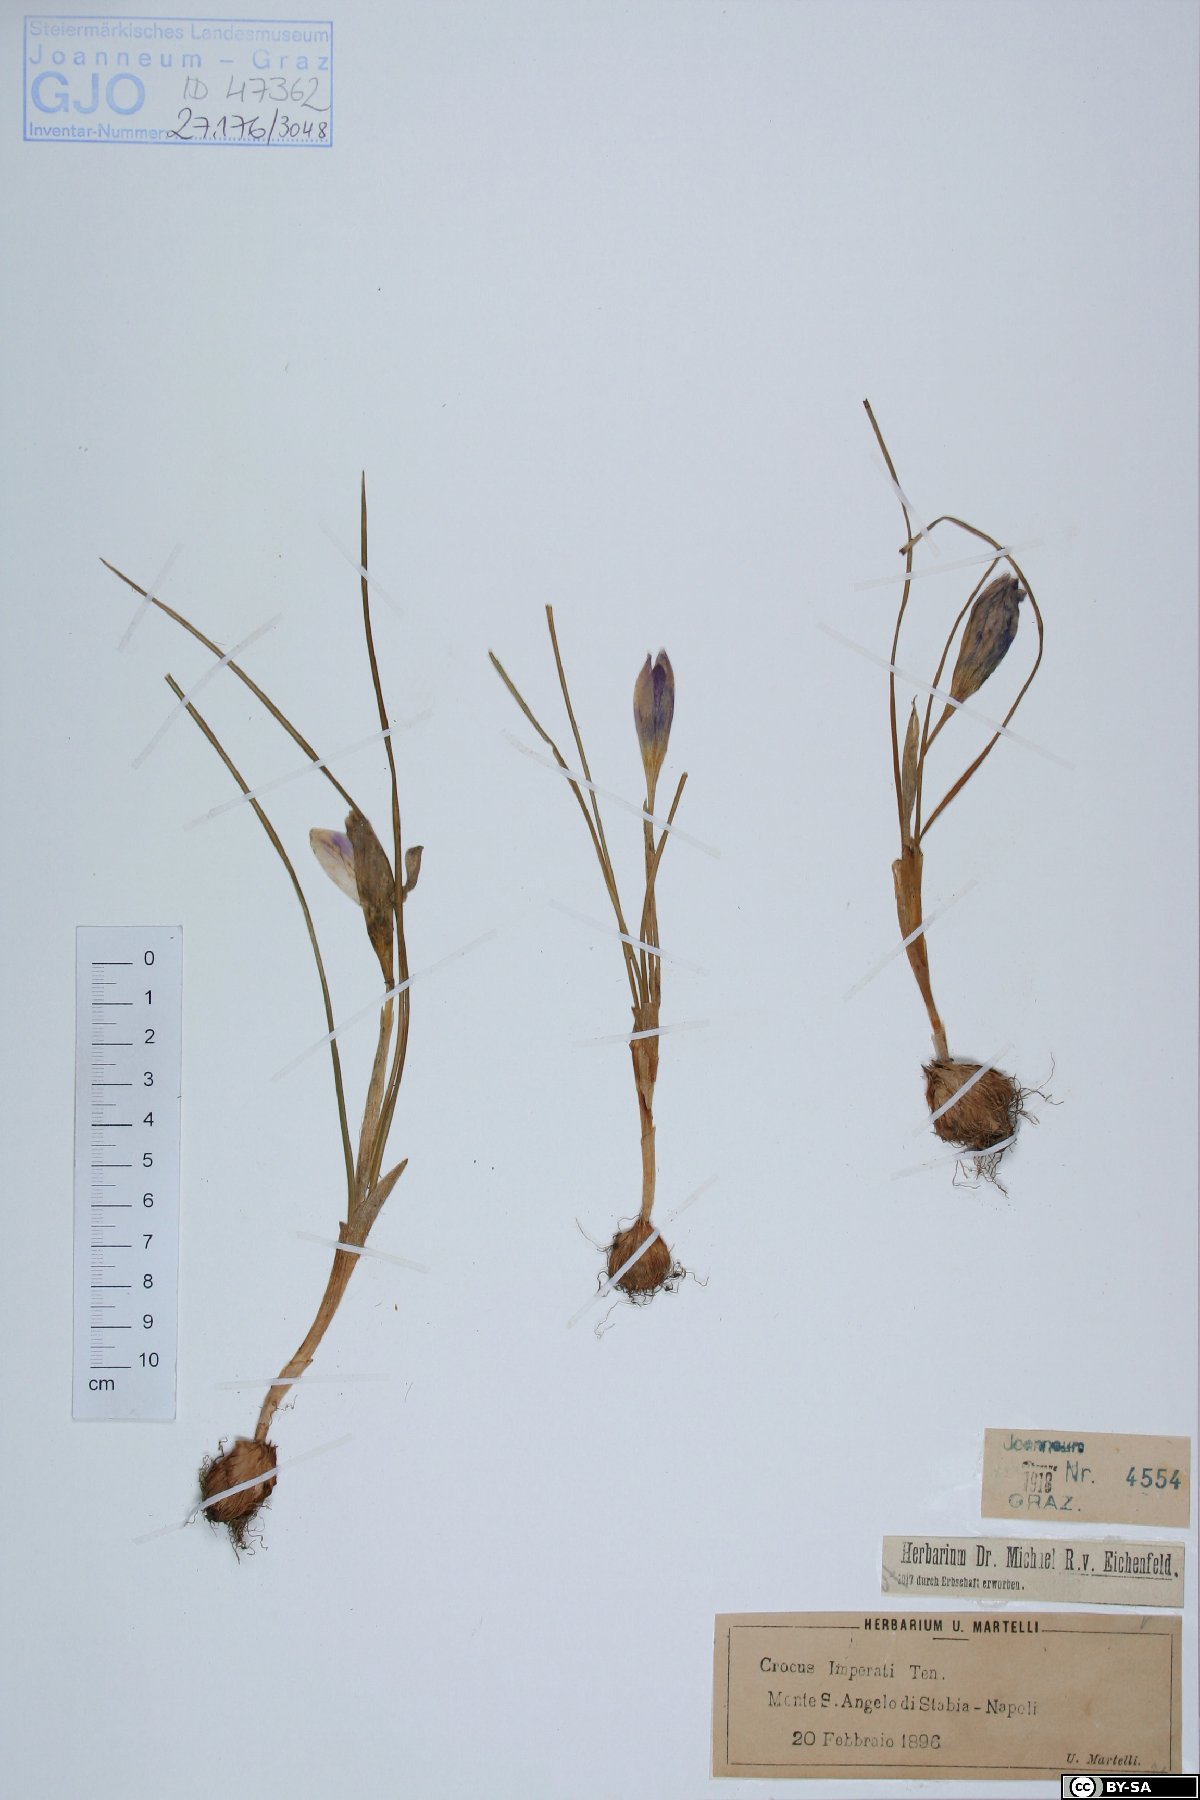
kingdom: Plantae
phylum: Tracheophyta
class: Liliopsida
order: Asparagales
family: Iridaceae
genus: Crocus
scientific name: Crocus imperati
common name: Early crocus
